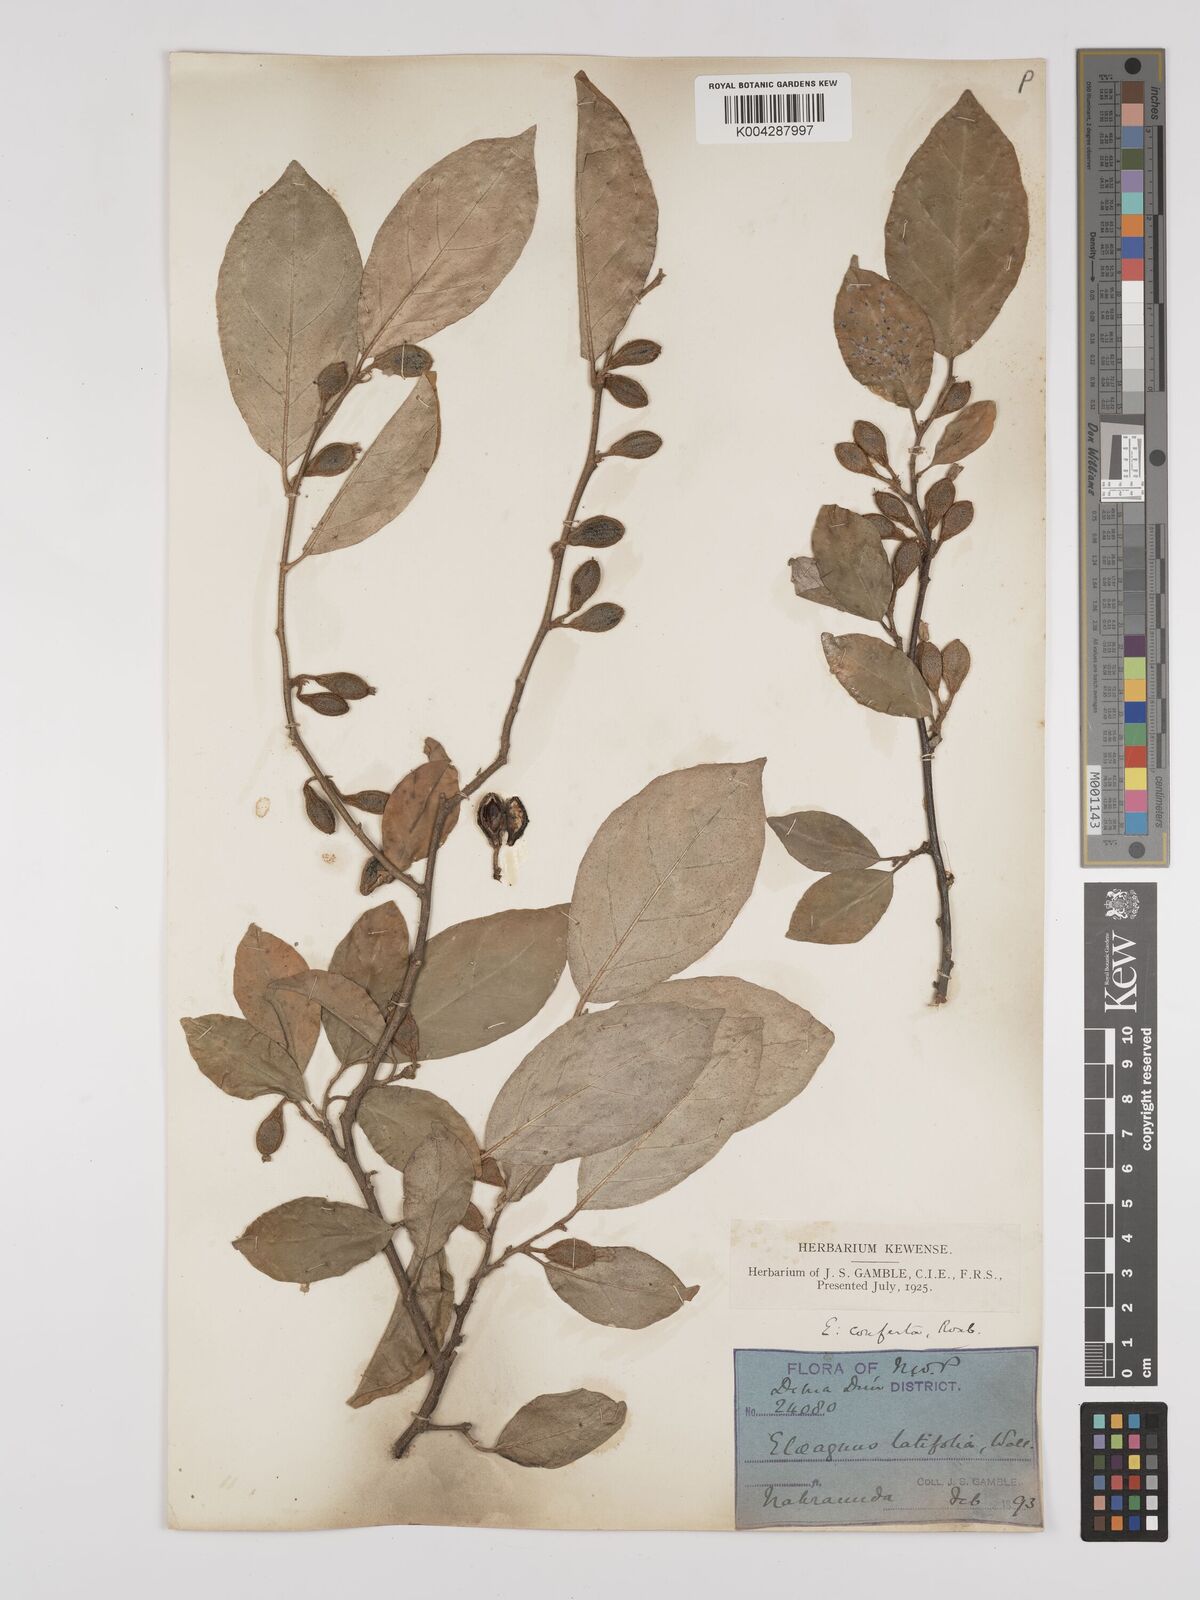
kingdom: Plantae
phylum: Tracheophyta
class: Magnoliopsida
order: Rosales
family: Elaeagnaceae
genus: Elaeagnus
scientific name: Elaeagnus latifolia
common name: Oleaster
